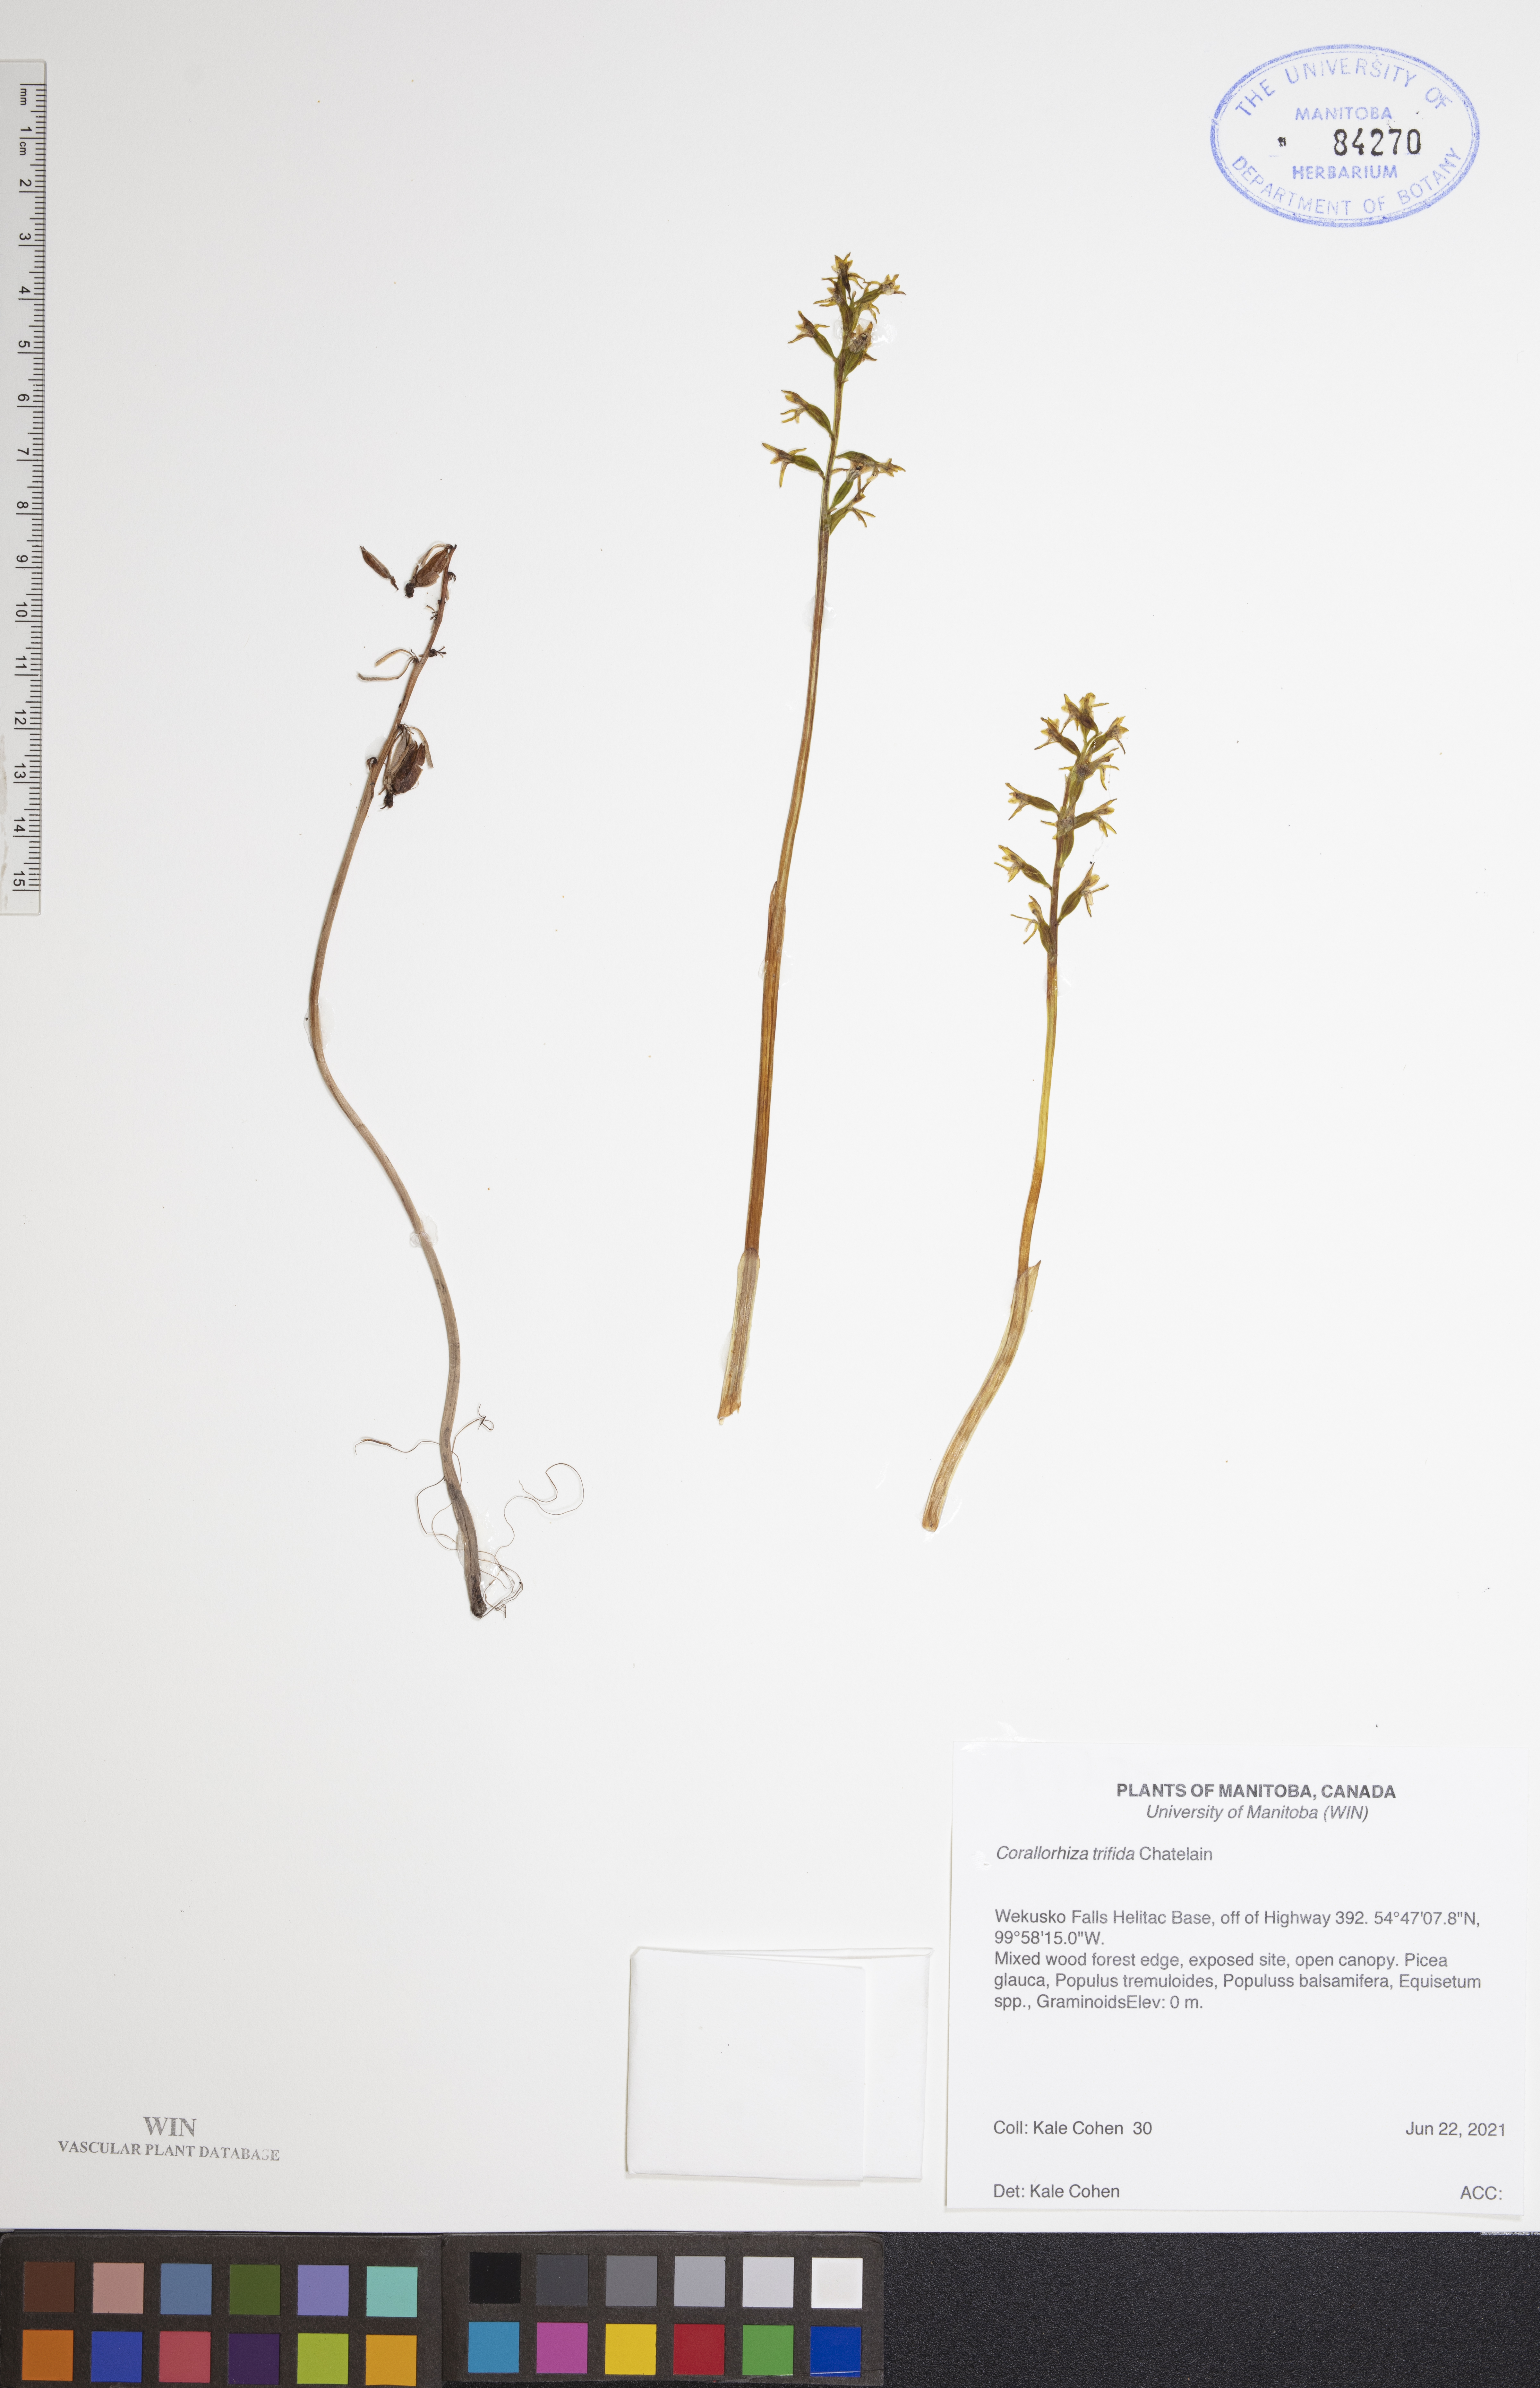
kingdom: Plantae
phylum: Tracheophyta
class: Liliopsida
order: Asparagales
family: Orchidaceae
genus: Corallorhiza
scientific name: Corallorhiza trifida
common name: Yellow coralroot
